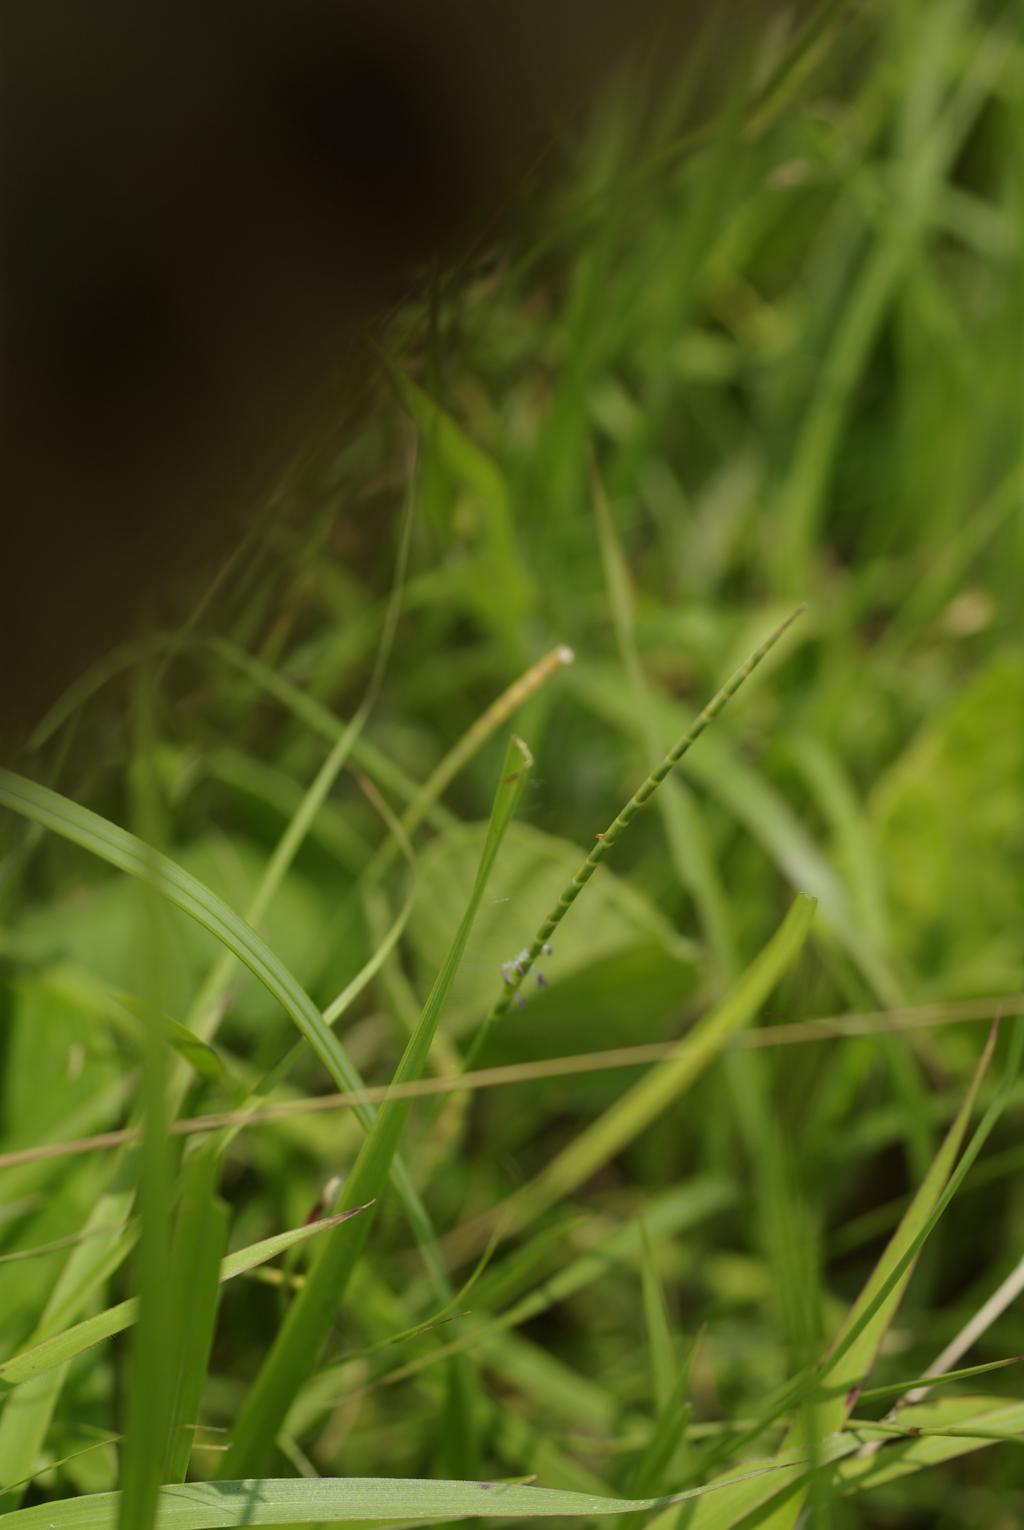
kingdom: Plantae
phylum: Tracheophyta
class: Liliopsida
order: Poales
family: Poaceae
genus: Mnesithea
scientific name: Mnesithea laevis
